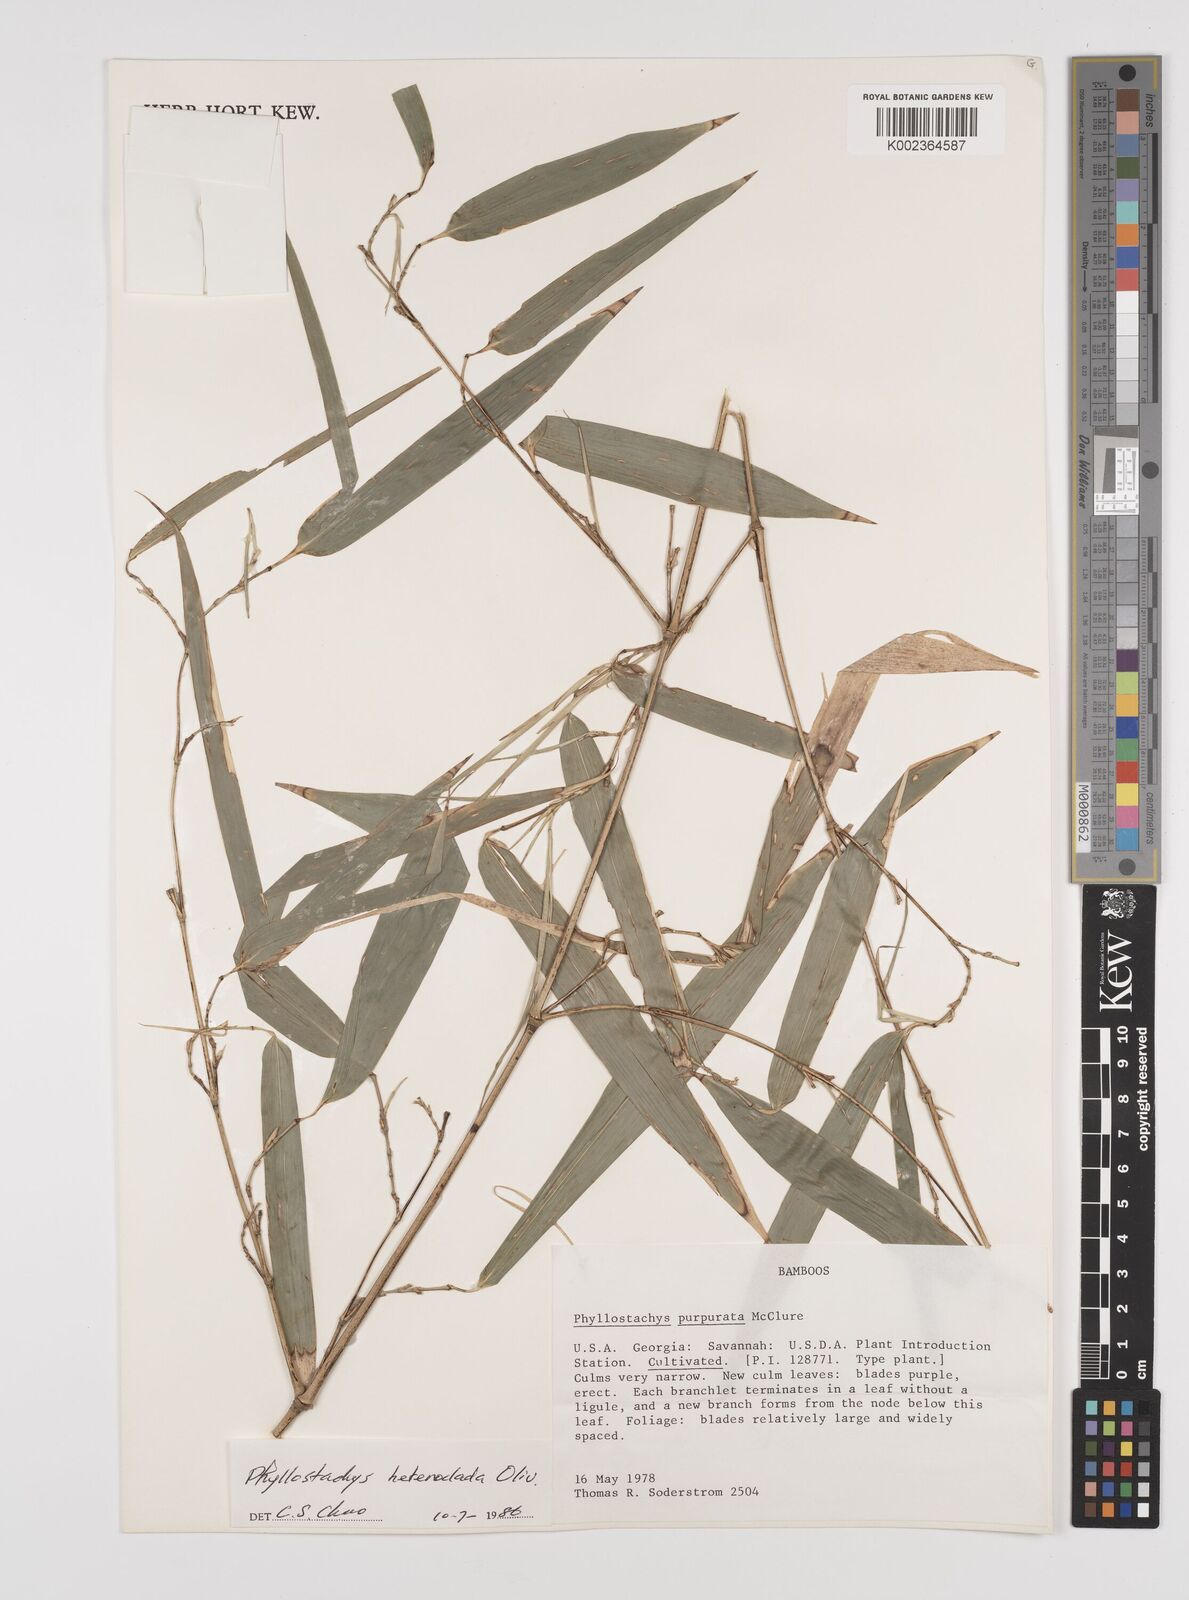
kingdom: Plantae
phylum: Tracheophyta
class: Liliopsida
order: Poales
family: Poaceae
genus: Phyllostachys
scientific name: Phyllostachys heteroclada
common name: Fishscale bamboo
